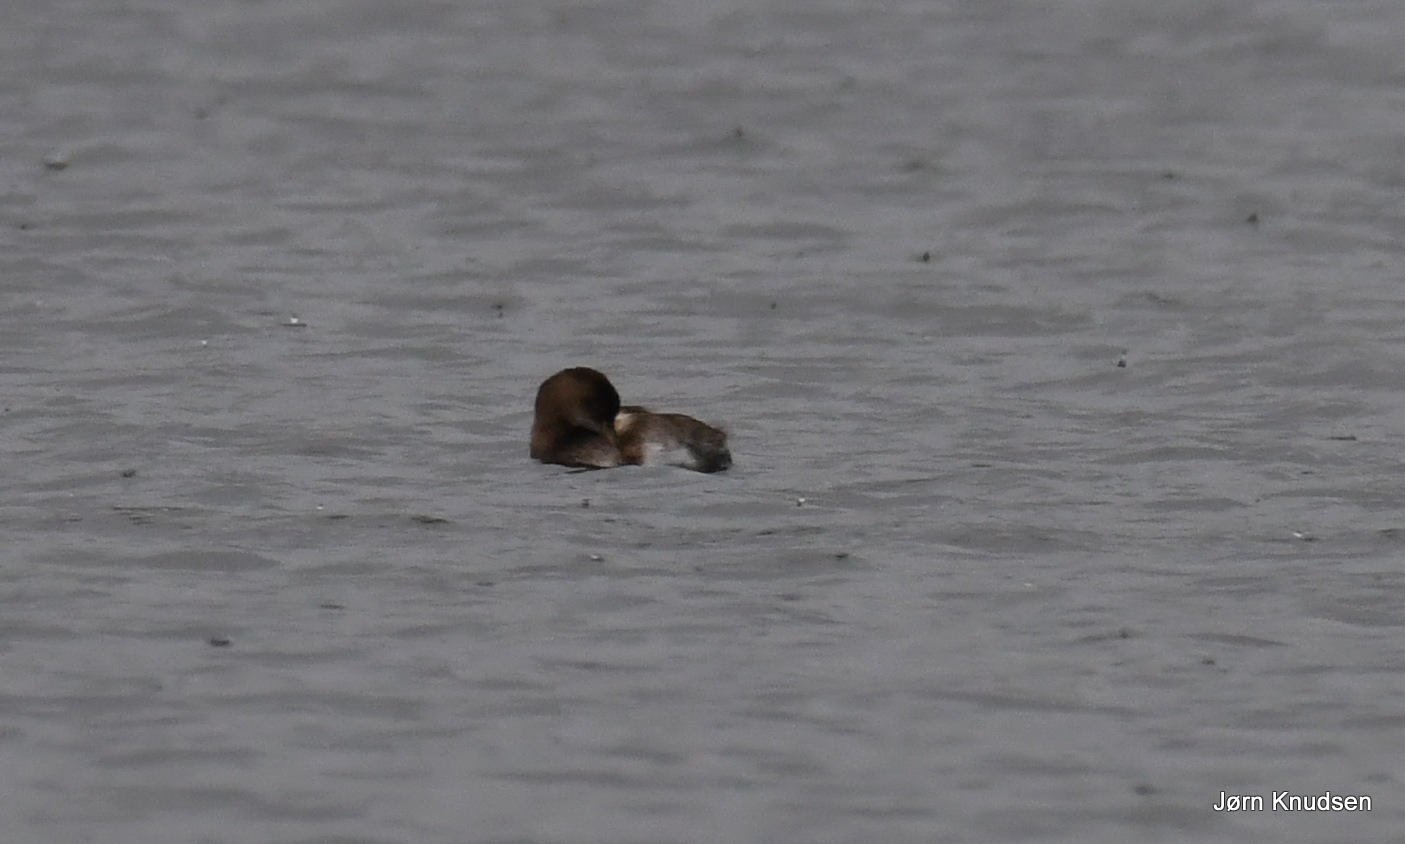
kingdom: Animalia
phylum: Chordata
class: Aves
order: Podicipediformes
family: Podicipedidae
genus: Tachybaptus
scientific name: Tachybaptus ruficollis
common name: Lille lappedykker
